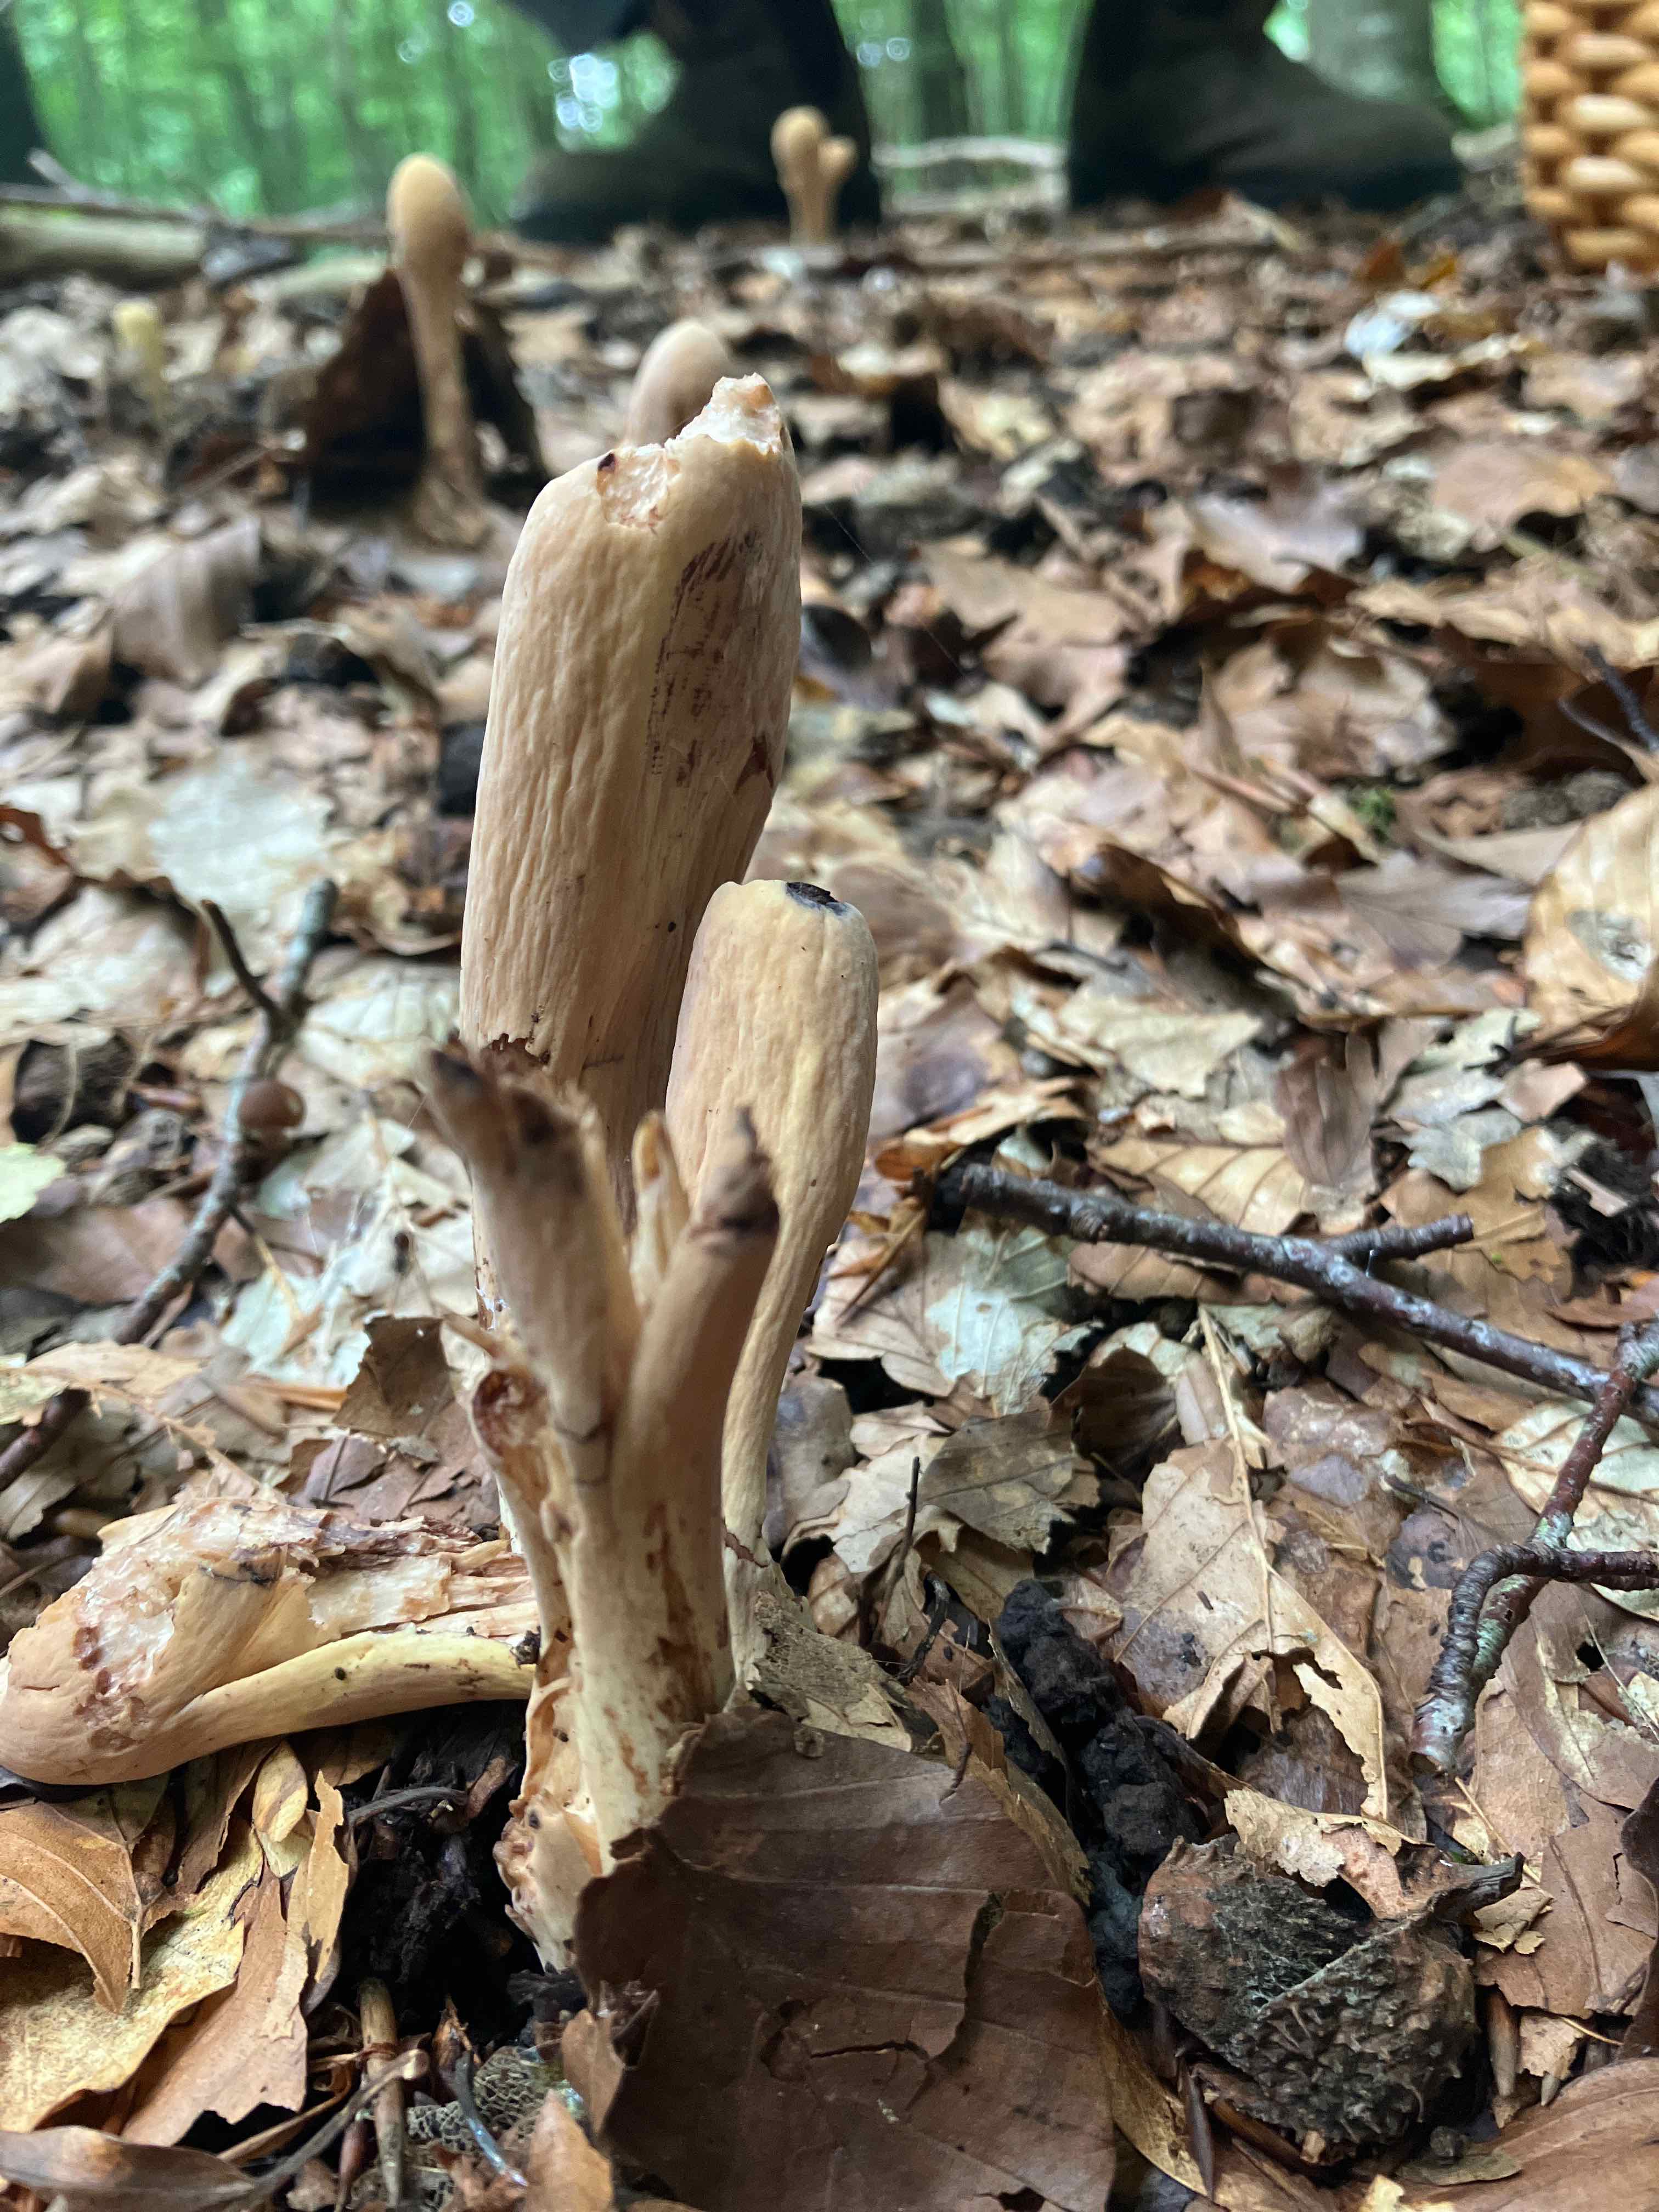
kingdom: Fungi
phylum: Basidiomycota
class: Agaricomycetes
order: Gomphales
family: Clavariadelphaceae
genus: Clavariadelphus
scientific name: Clavariadelphus pistillaris
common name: herkules-kæmpekølle
